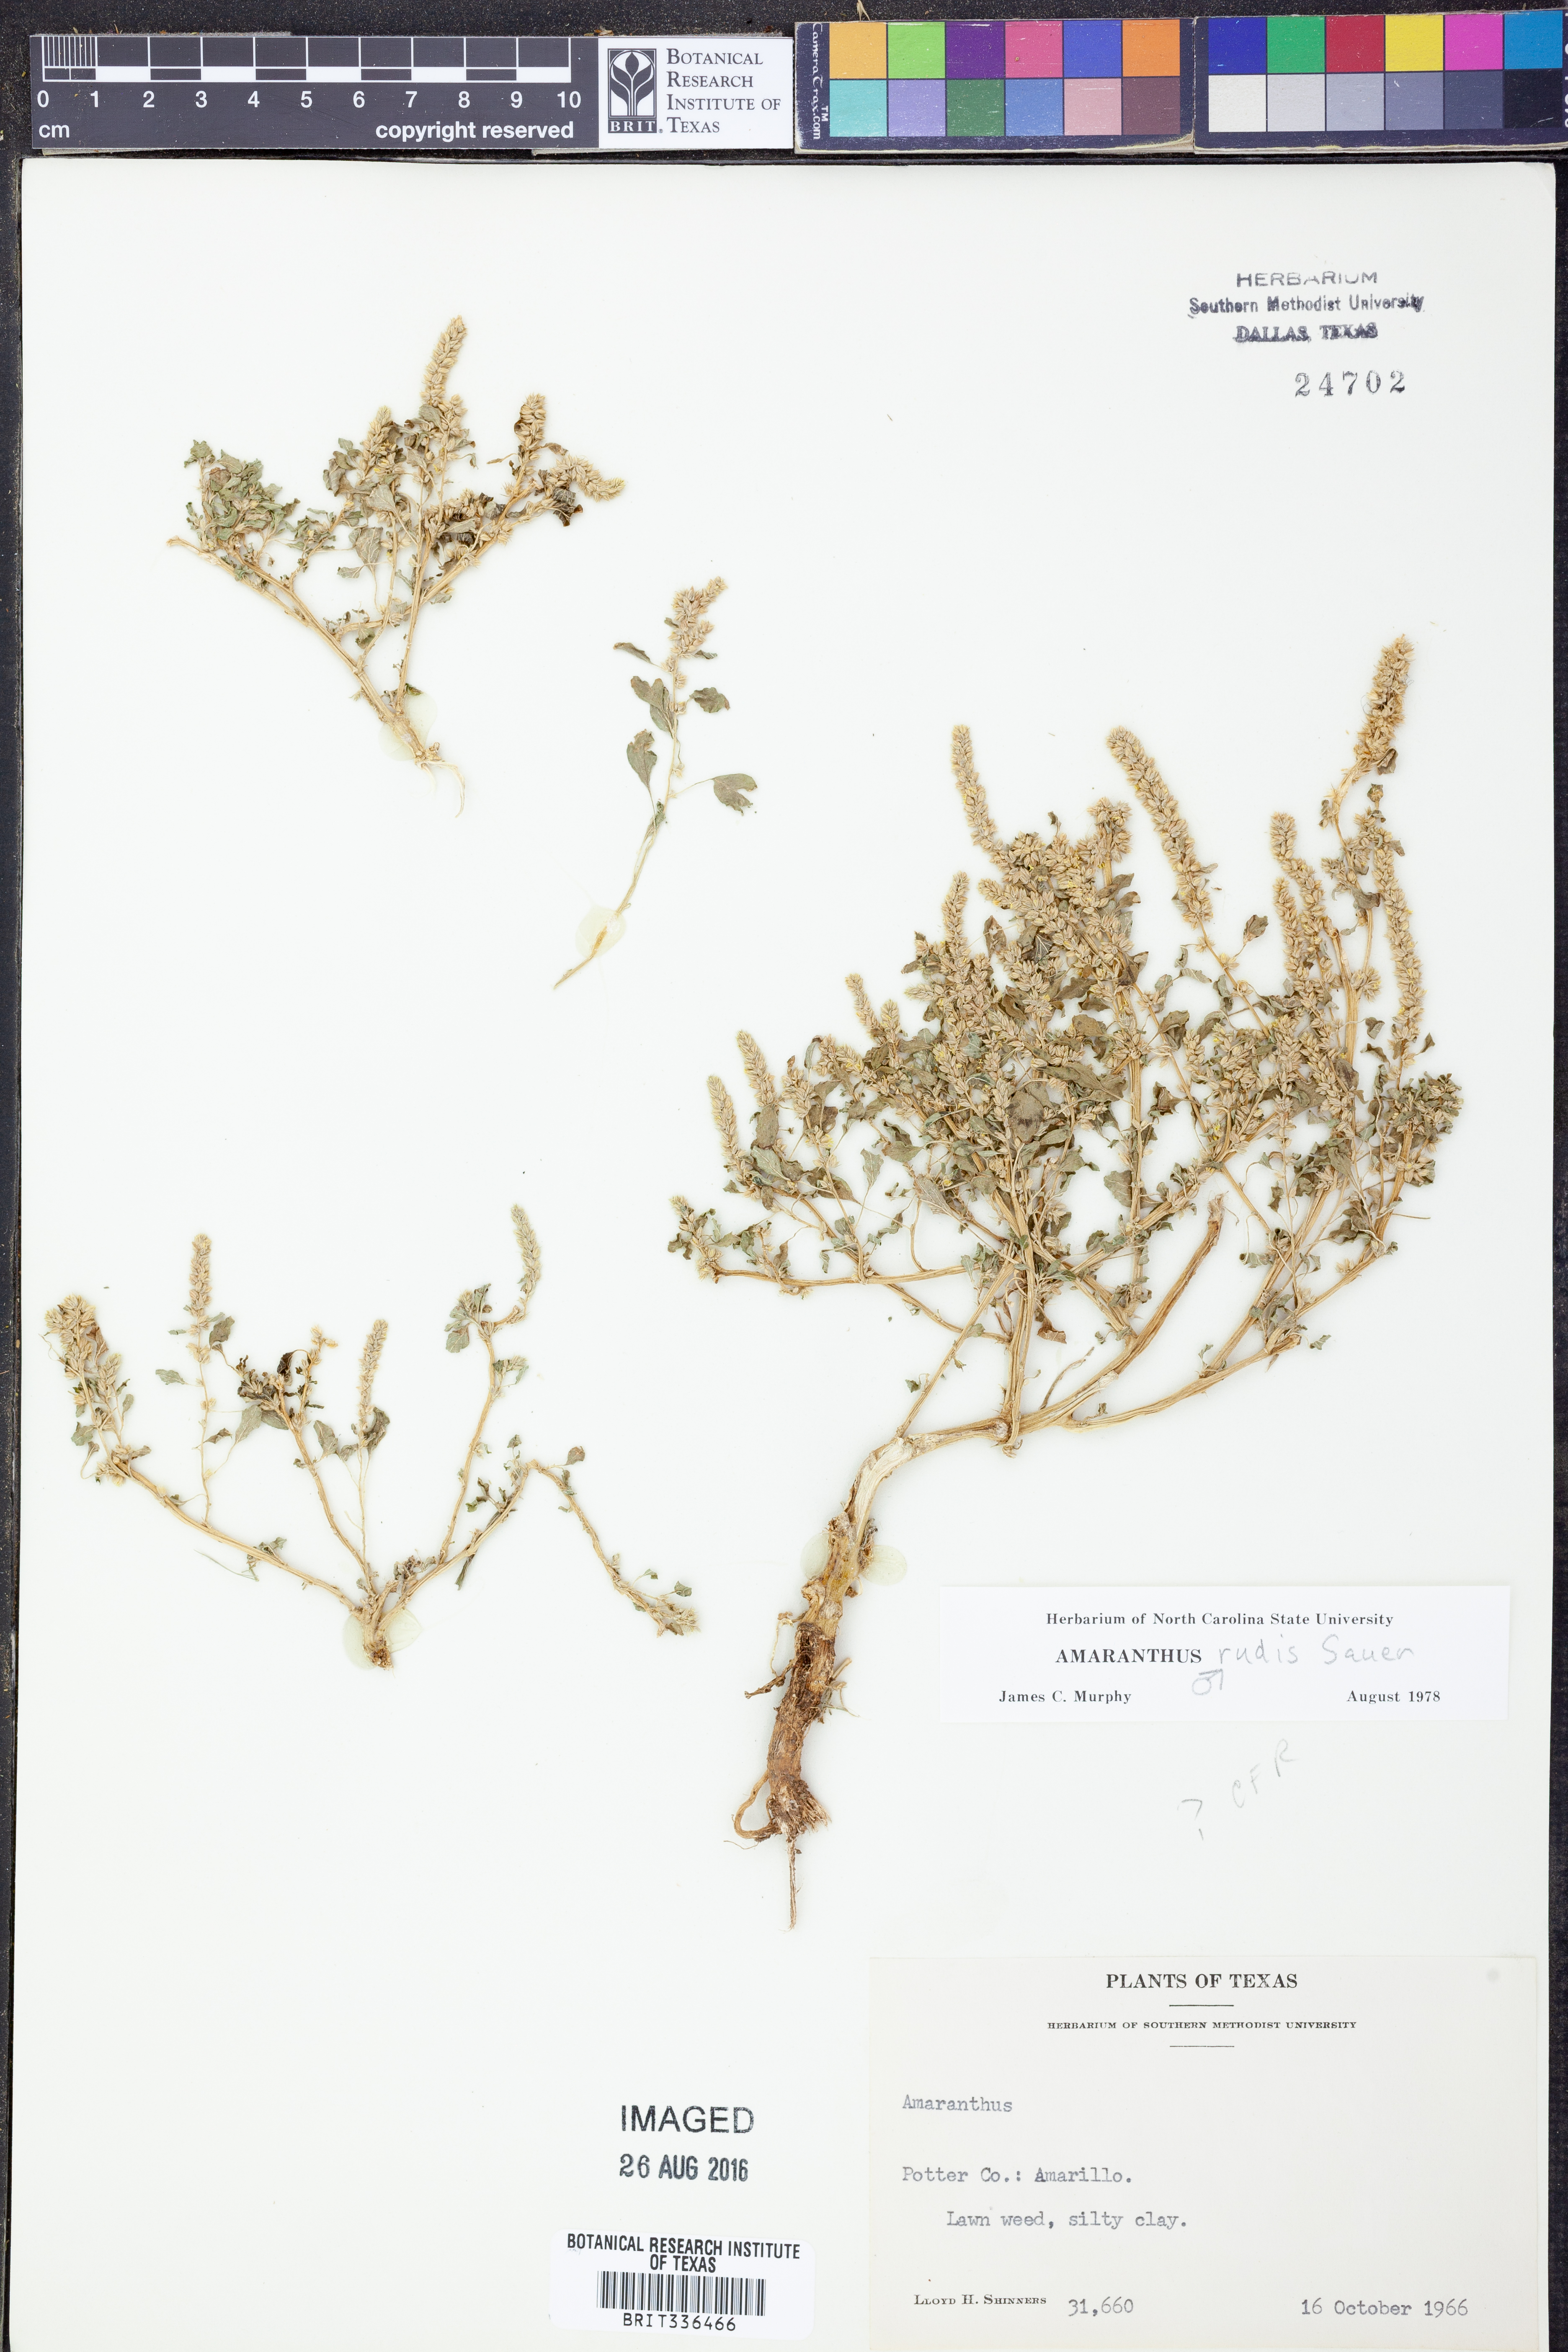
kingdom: Plantae
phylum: Tracheophyta
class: Magnoliopsida
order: Caryophyllales
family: Amaranthaceae
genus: Amaranthus
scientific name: Amaranthus tuberculatus
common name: Rough-fruit amaranth
